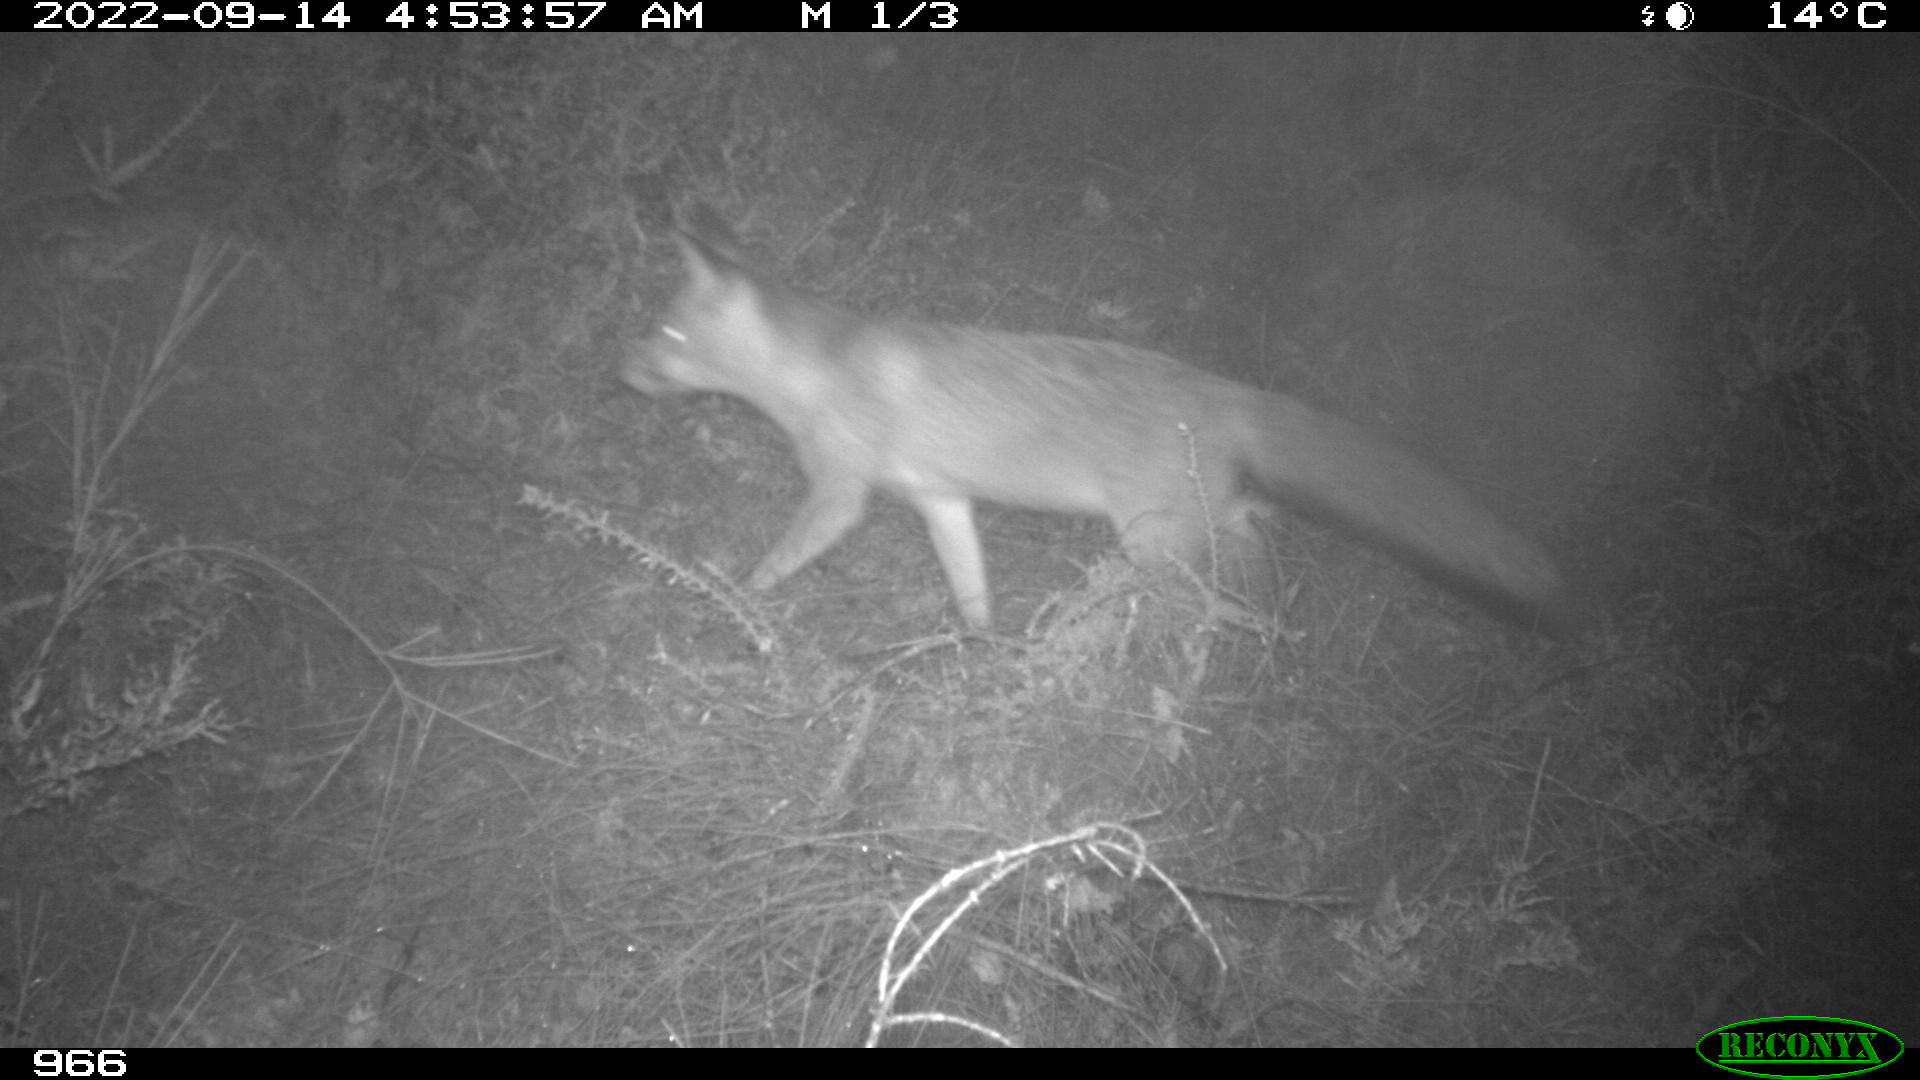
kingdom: Animalia
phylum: Chordata
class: Mammalia
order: Carnivora
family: Canidae
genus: Vulpes
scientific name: Vulpes vulpes
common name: Red fox
